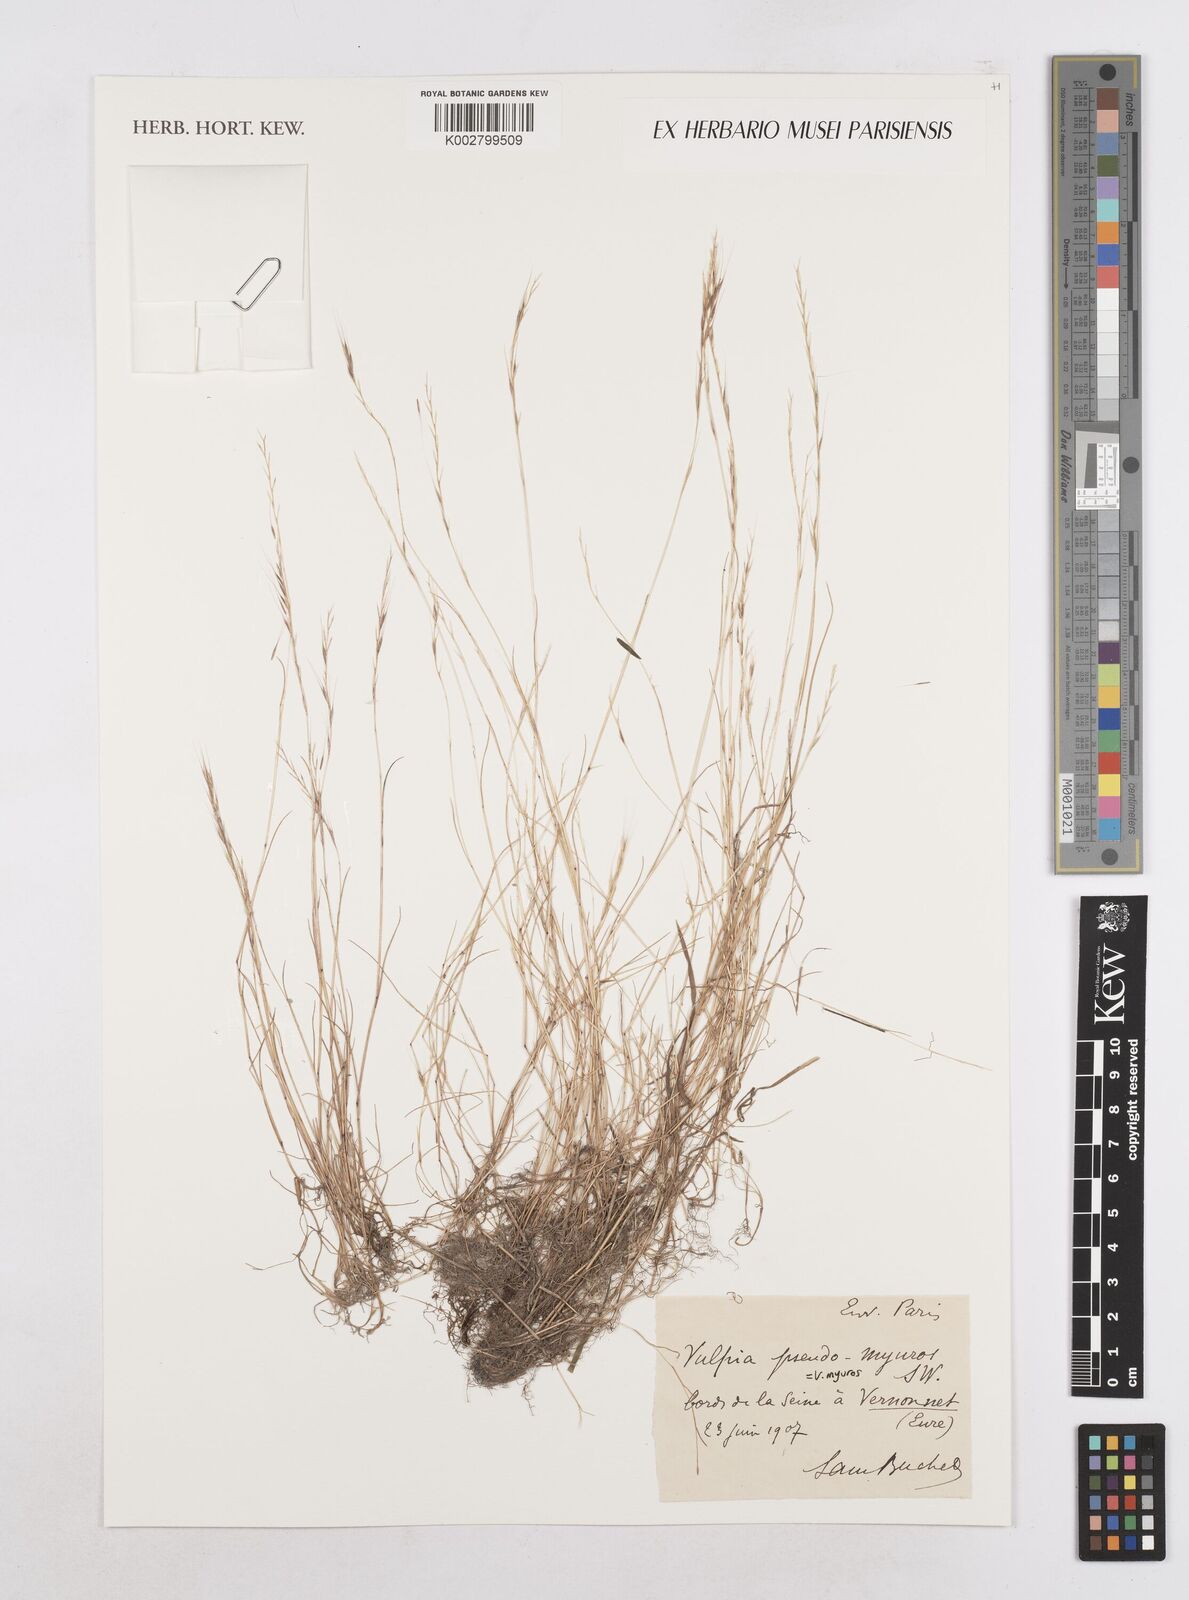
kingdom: Plantae
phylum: Tracheophyta
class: Liliopsida
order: Poales
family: Poaceae
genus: Festuca
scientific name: Festuca myuros
